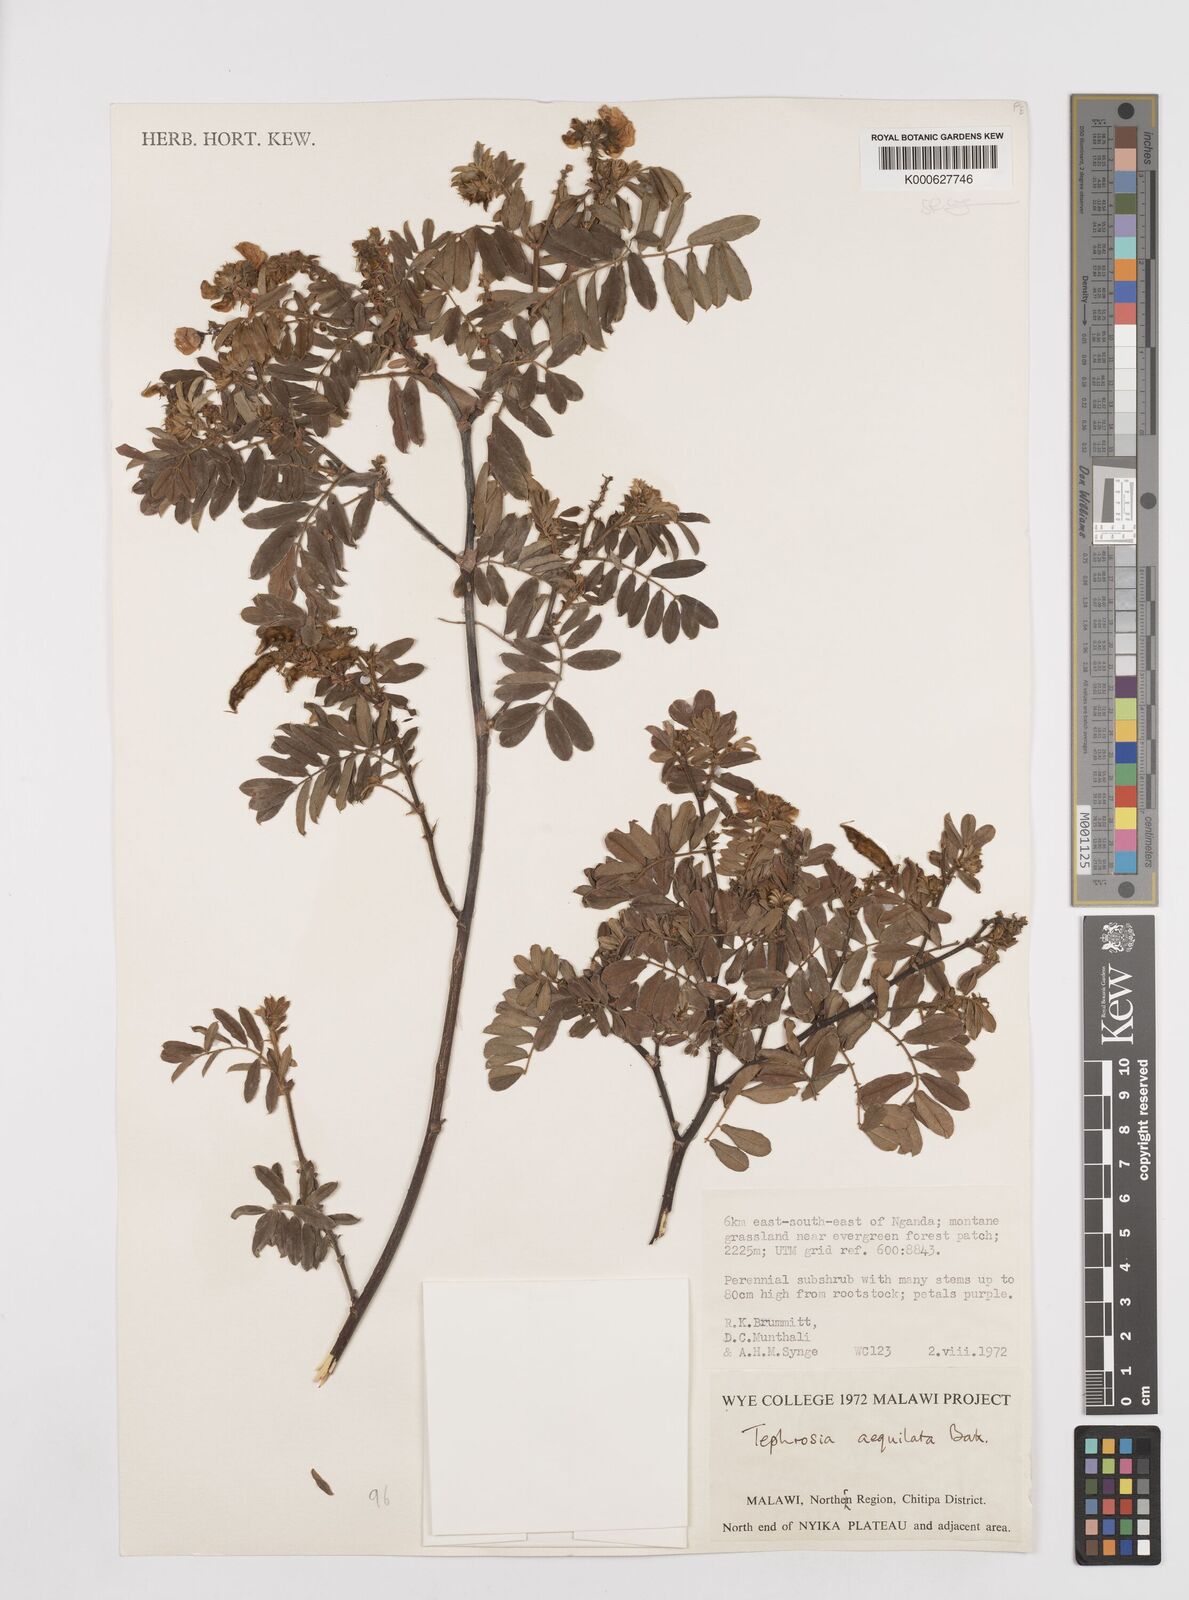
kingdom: Plantae
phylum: Tracheophyta
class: Magnoliopsida
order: Fabales
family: Fabaceae
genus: Tephrosia
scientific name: Tephrosia aequilata
